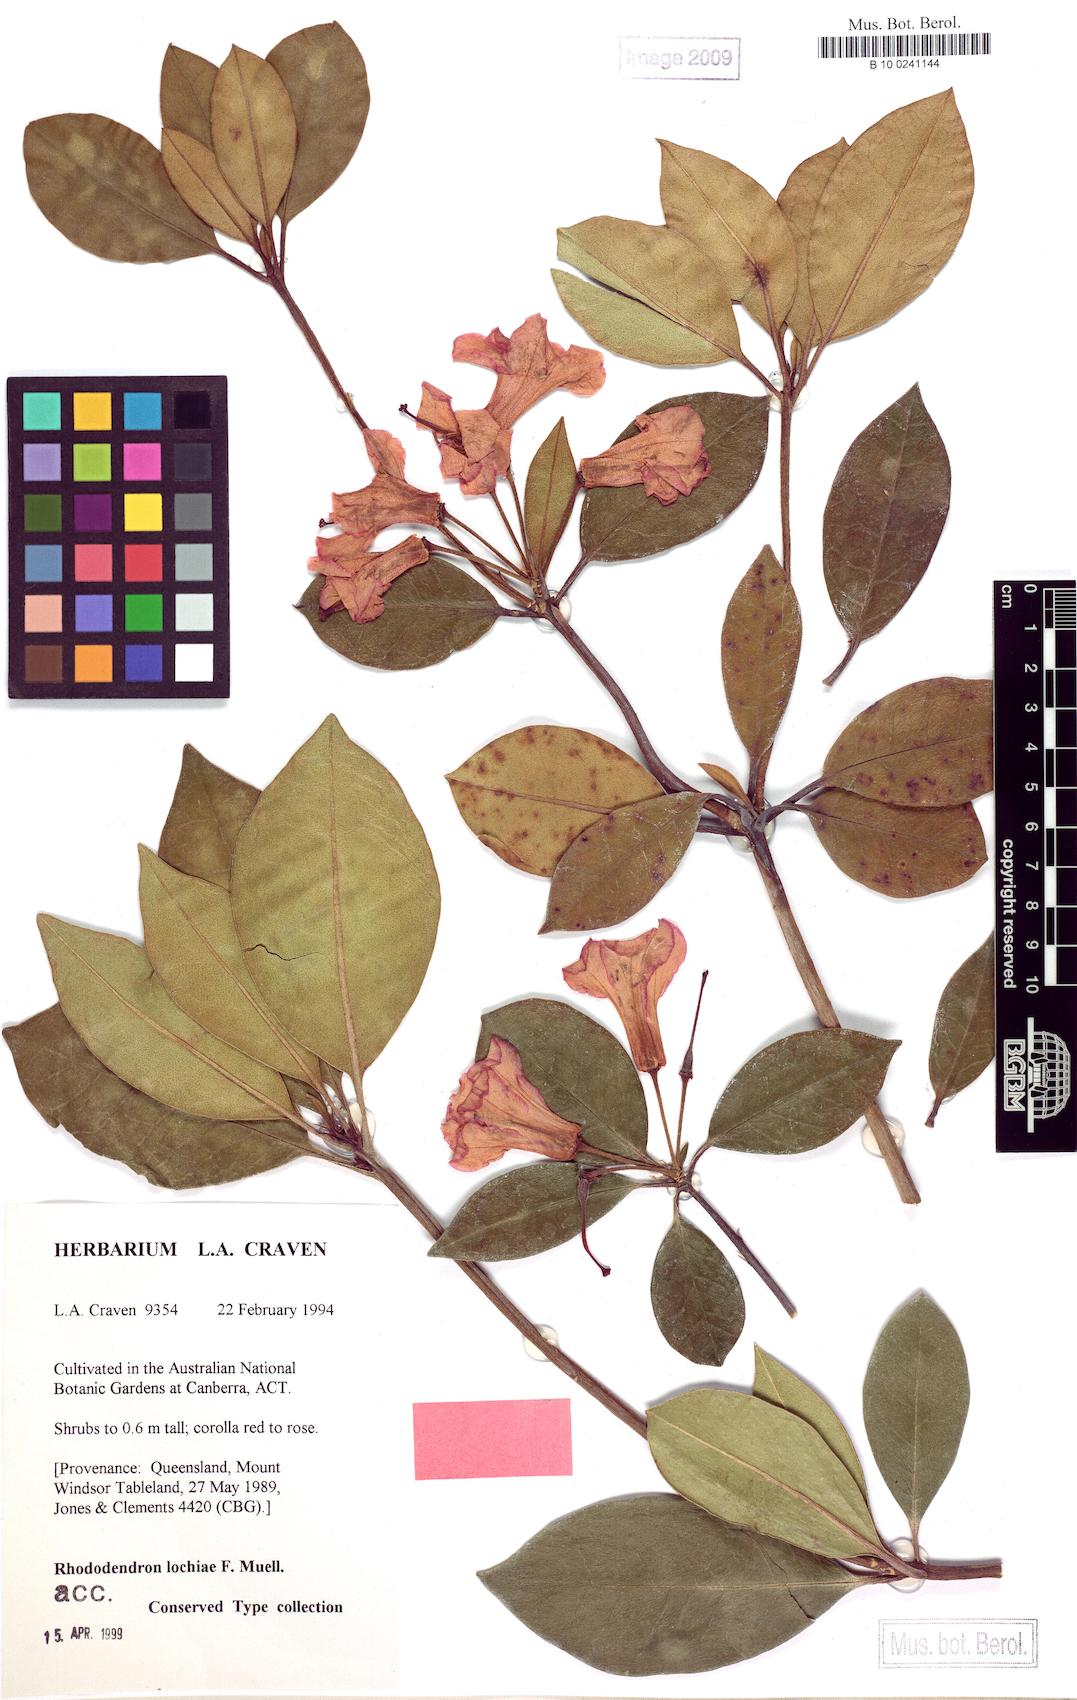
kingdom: Plantae
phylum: Tracheophyta
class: Magnoliopsida
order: Ericales
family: Ericaceae
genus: Rhododendron
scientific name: Rhododendron lochiae
